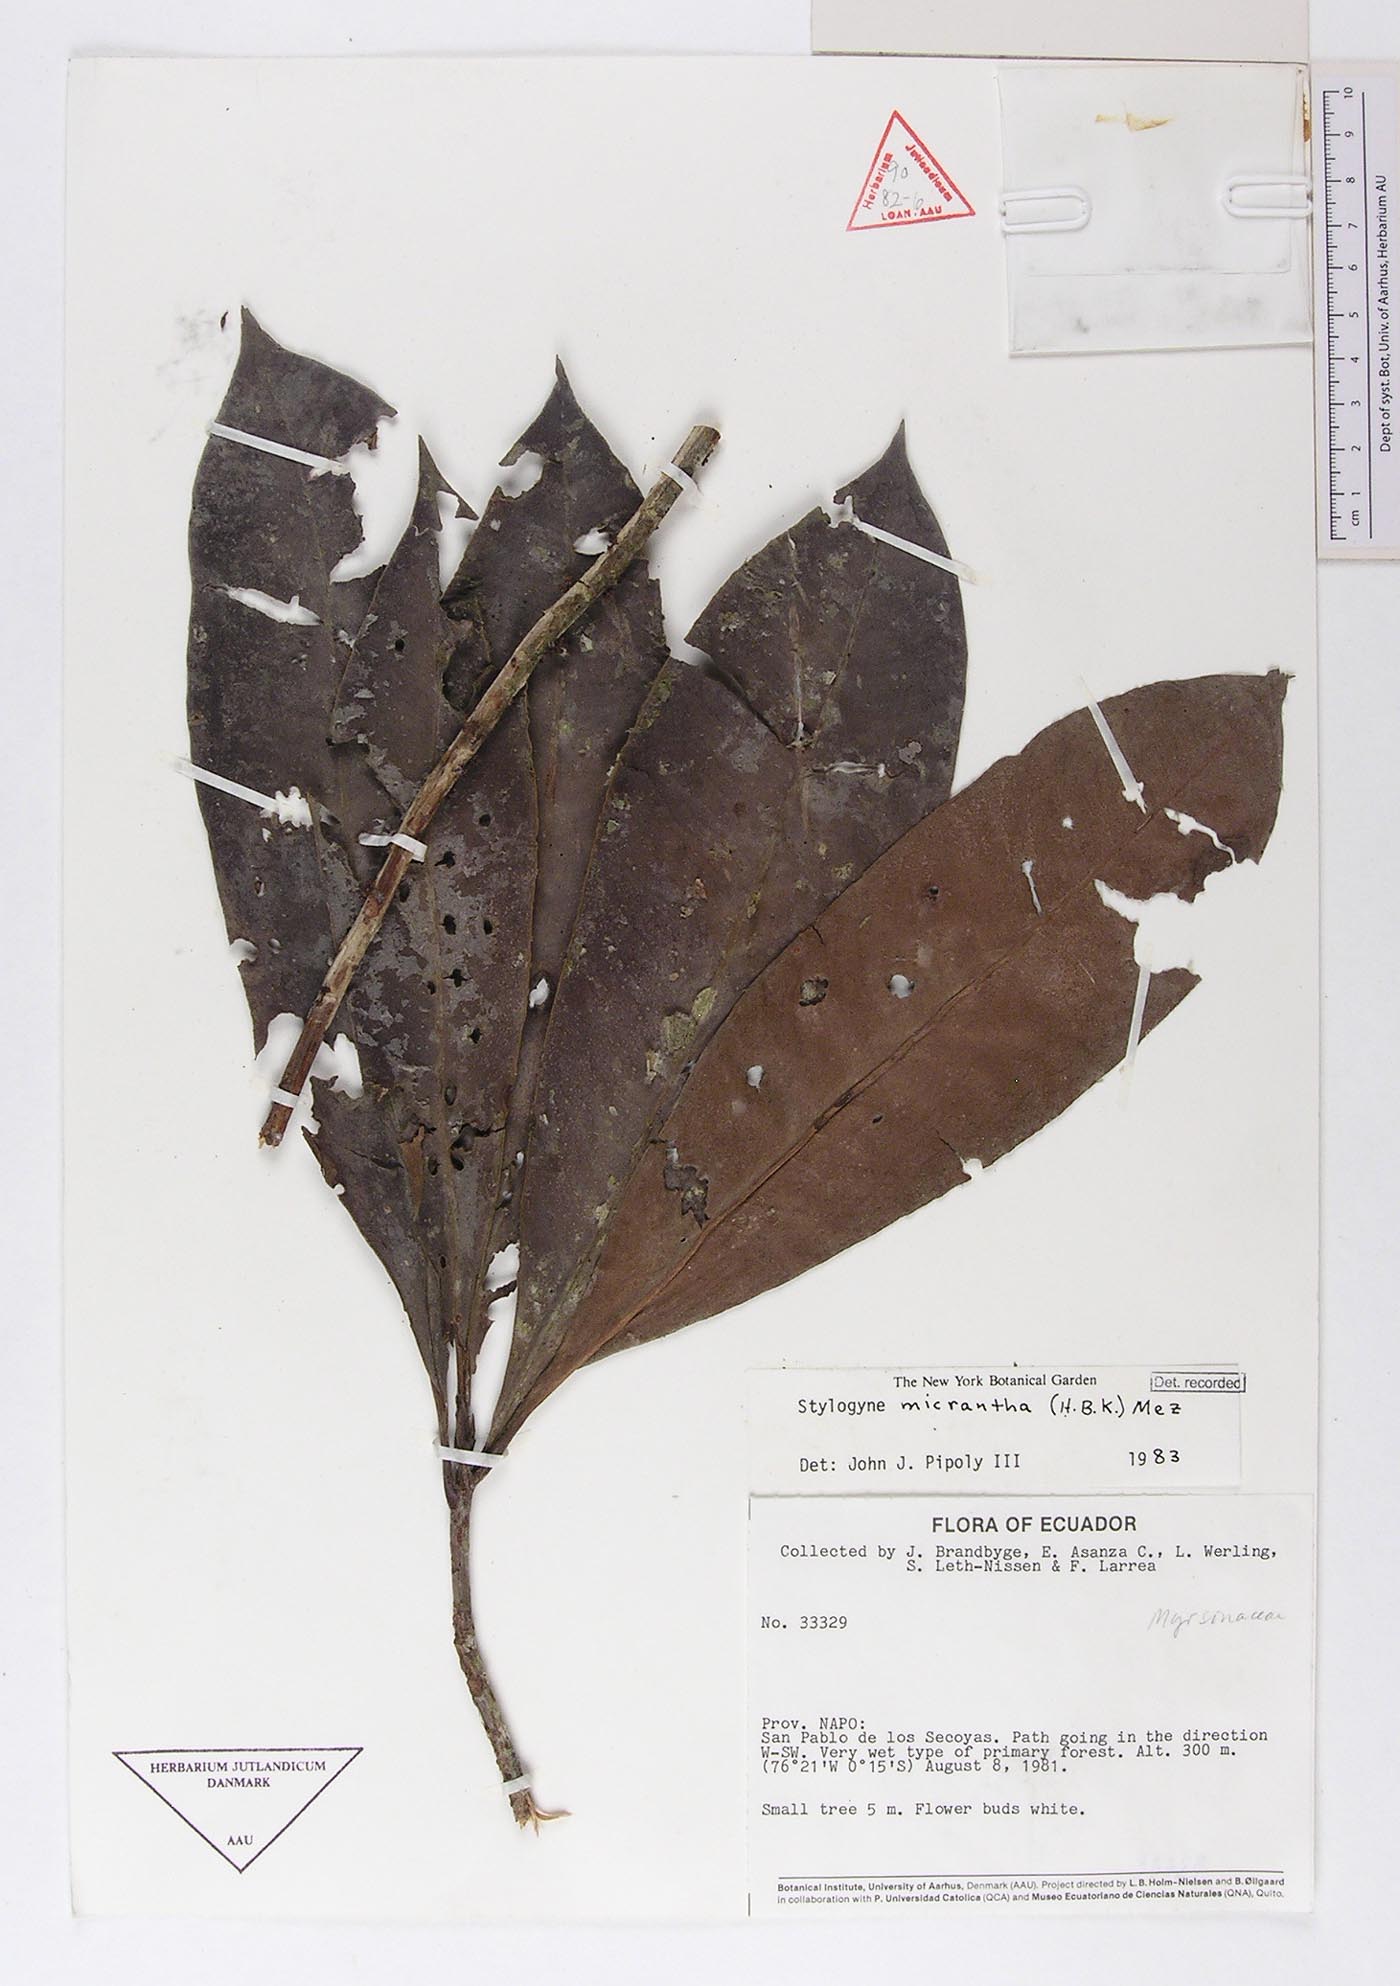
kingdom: Plantae
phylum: Tracheophyta
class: Magnoliopsida
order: Ericales
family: Primulaceae
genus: Stylogyne
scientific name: Stylogyne micrantha
